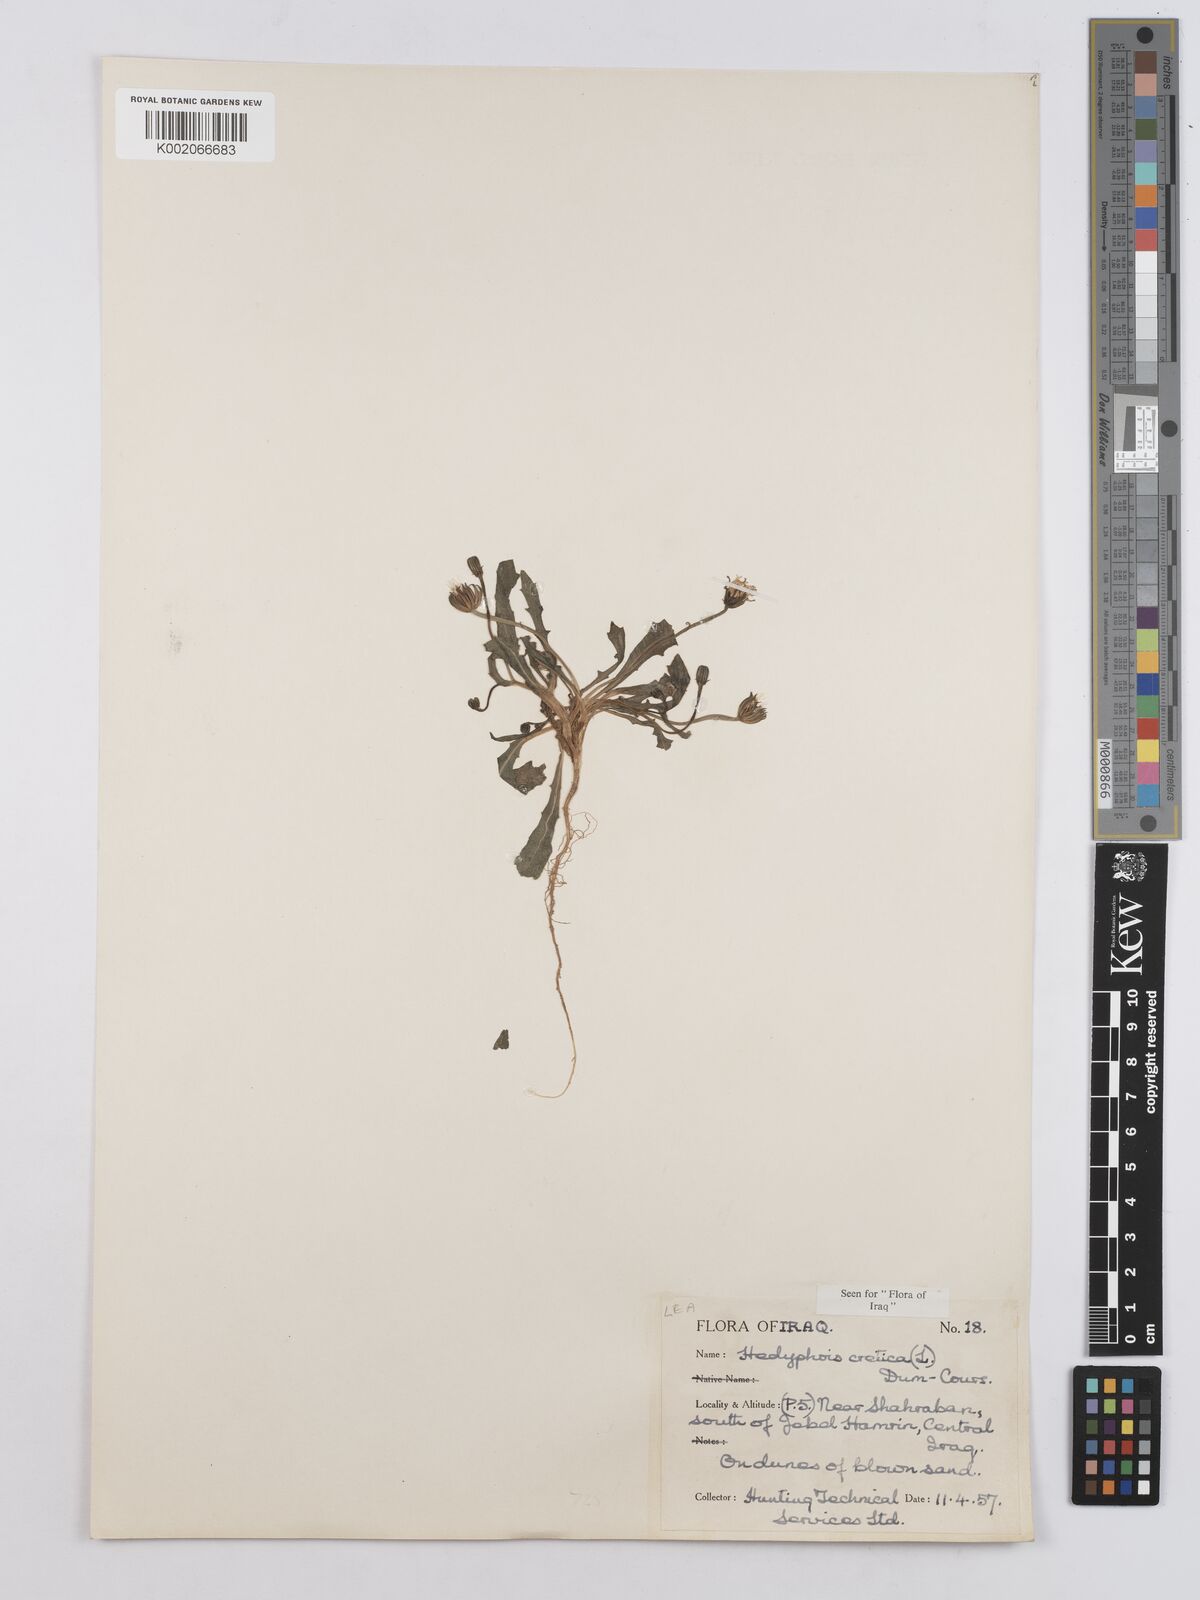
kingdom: Plantae
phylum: Tracheophyta
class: Magnoliopsida
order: Asterales
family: Asteraceae
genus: Hedypnois
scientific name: Hedypnois cretica
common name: Scaly hawkbit
